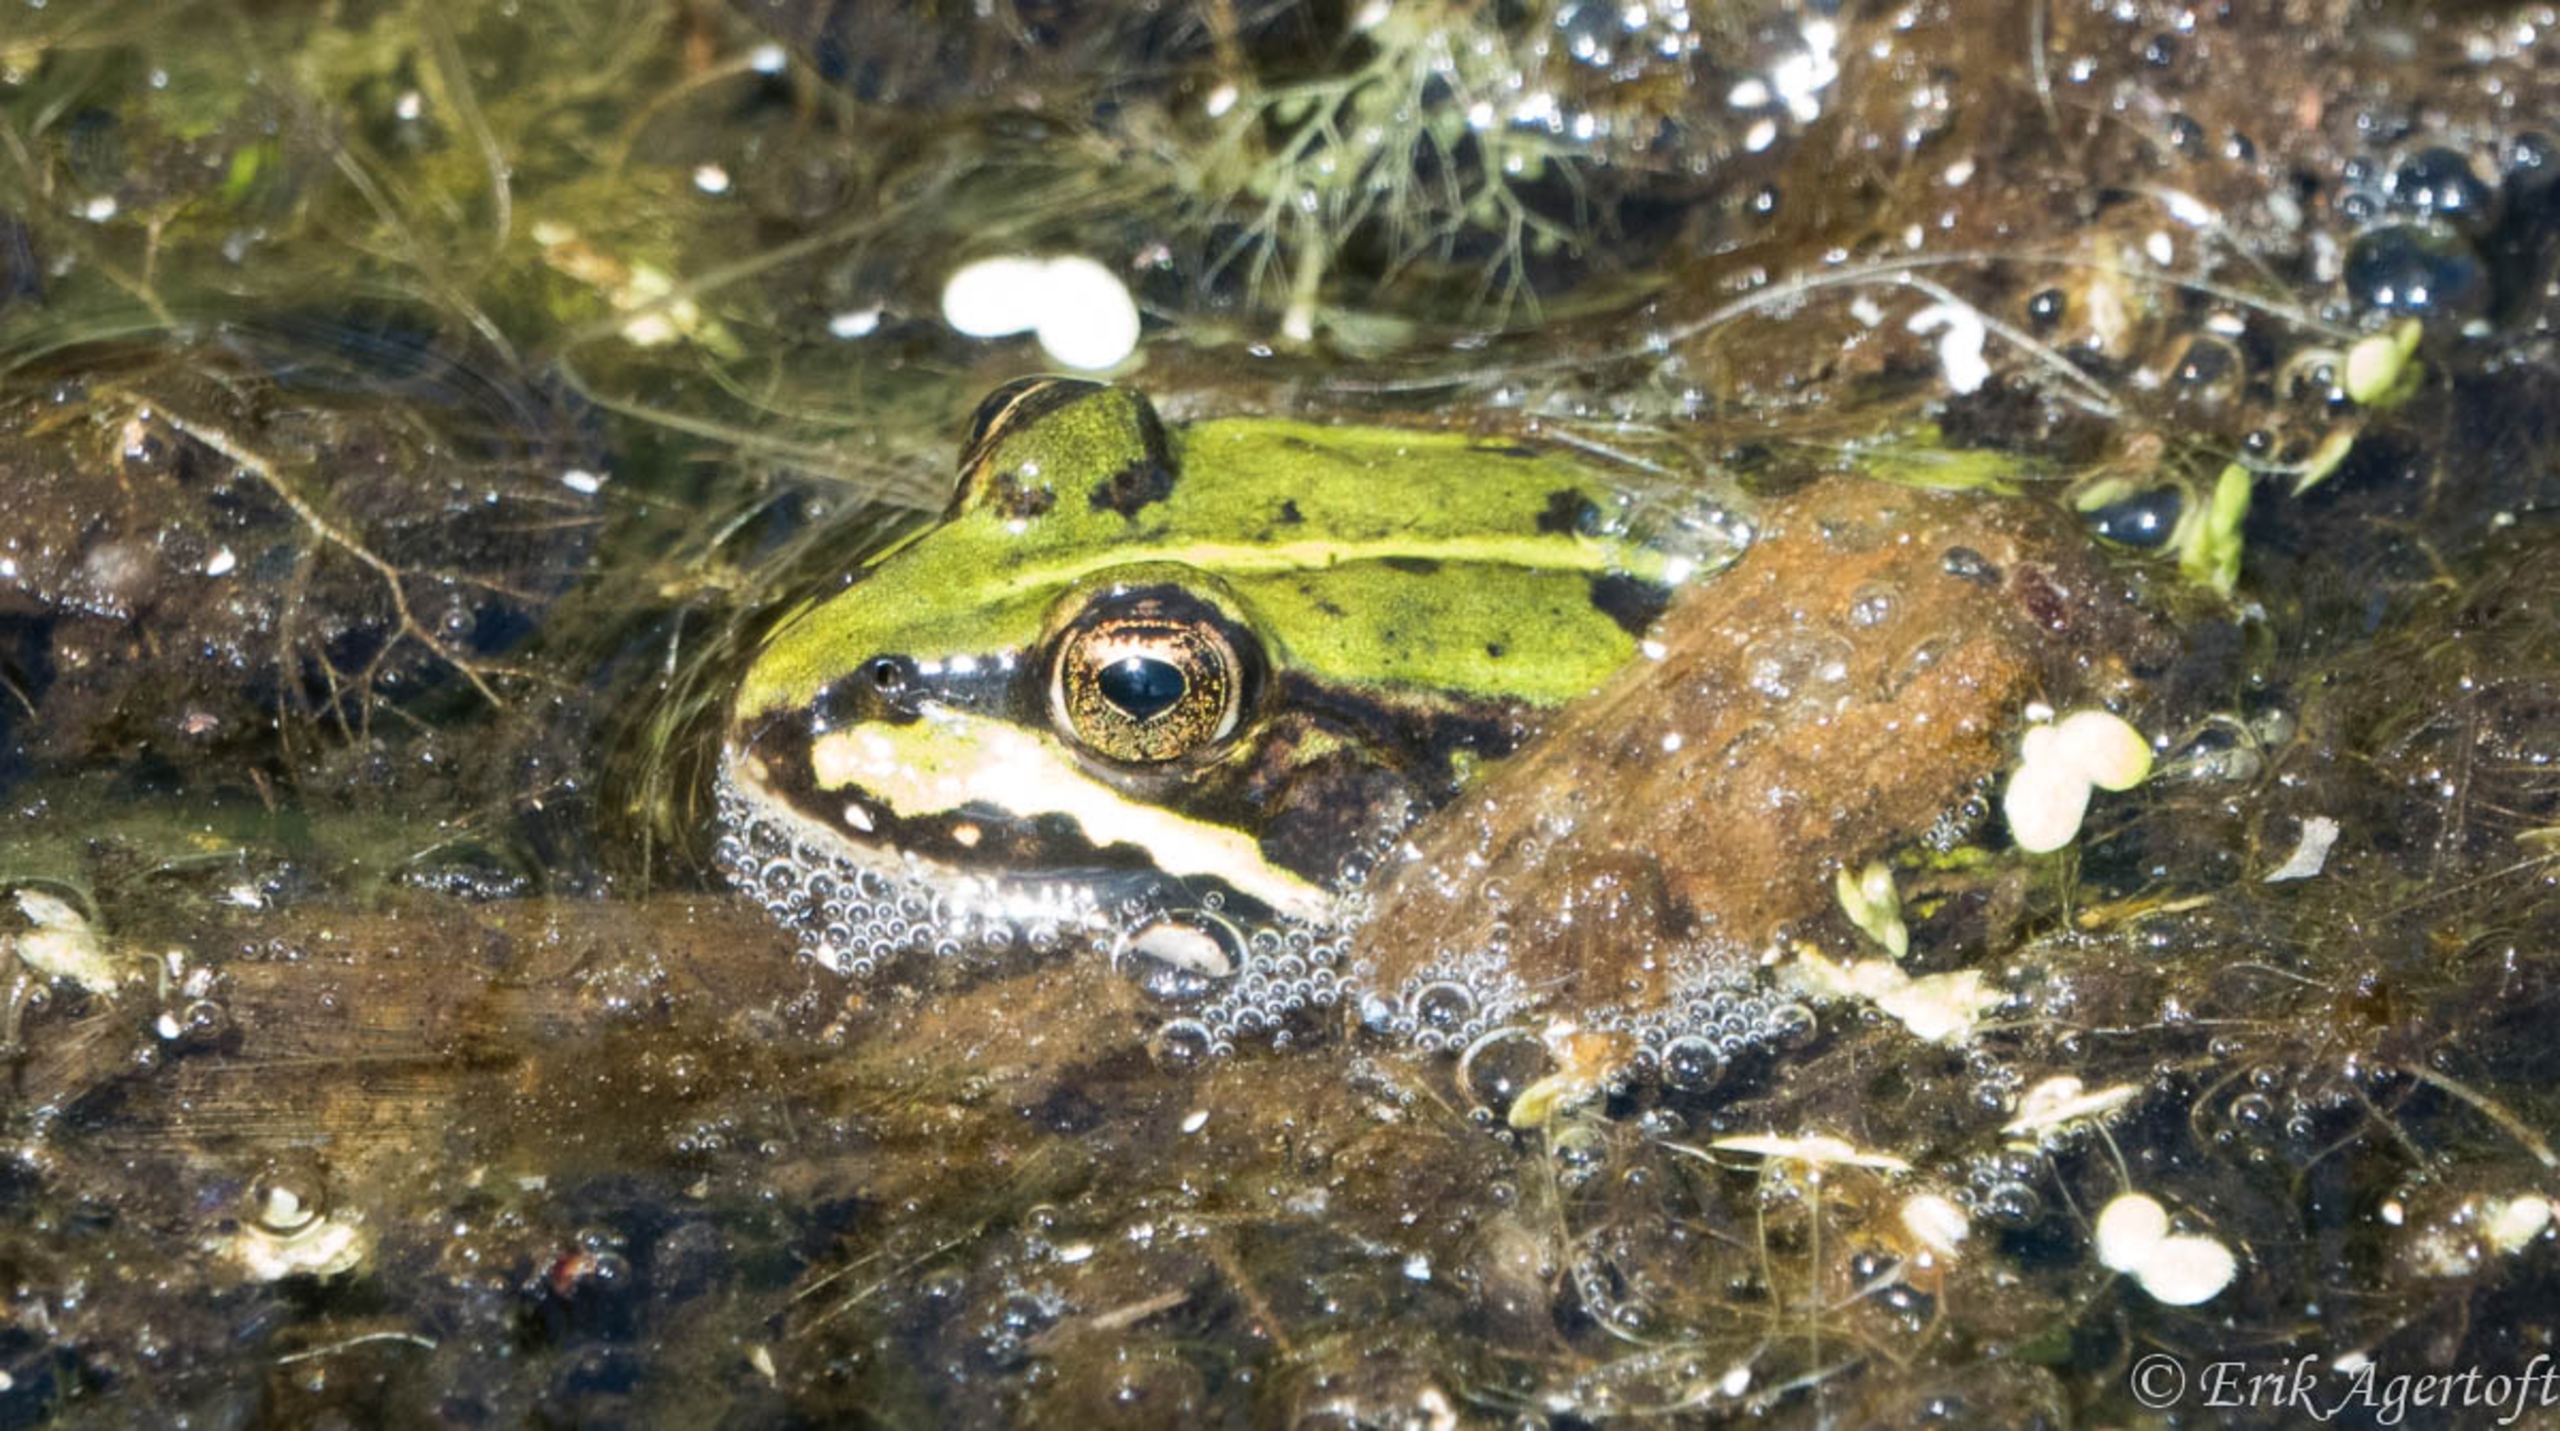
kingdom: Animalia
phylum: Chordata
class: Amphibia
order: Anura
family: Ranidae
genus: Pelophylax
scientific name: Pelophylax lessonae
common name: Grøn frø
